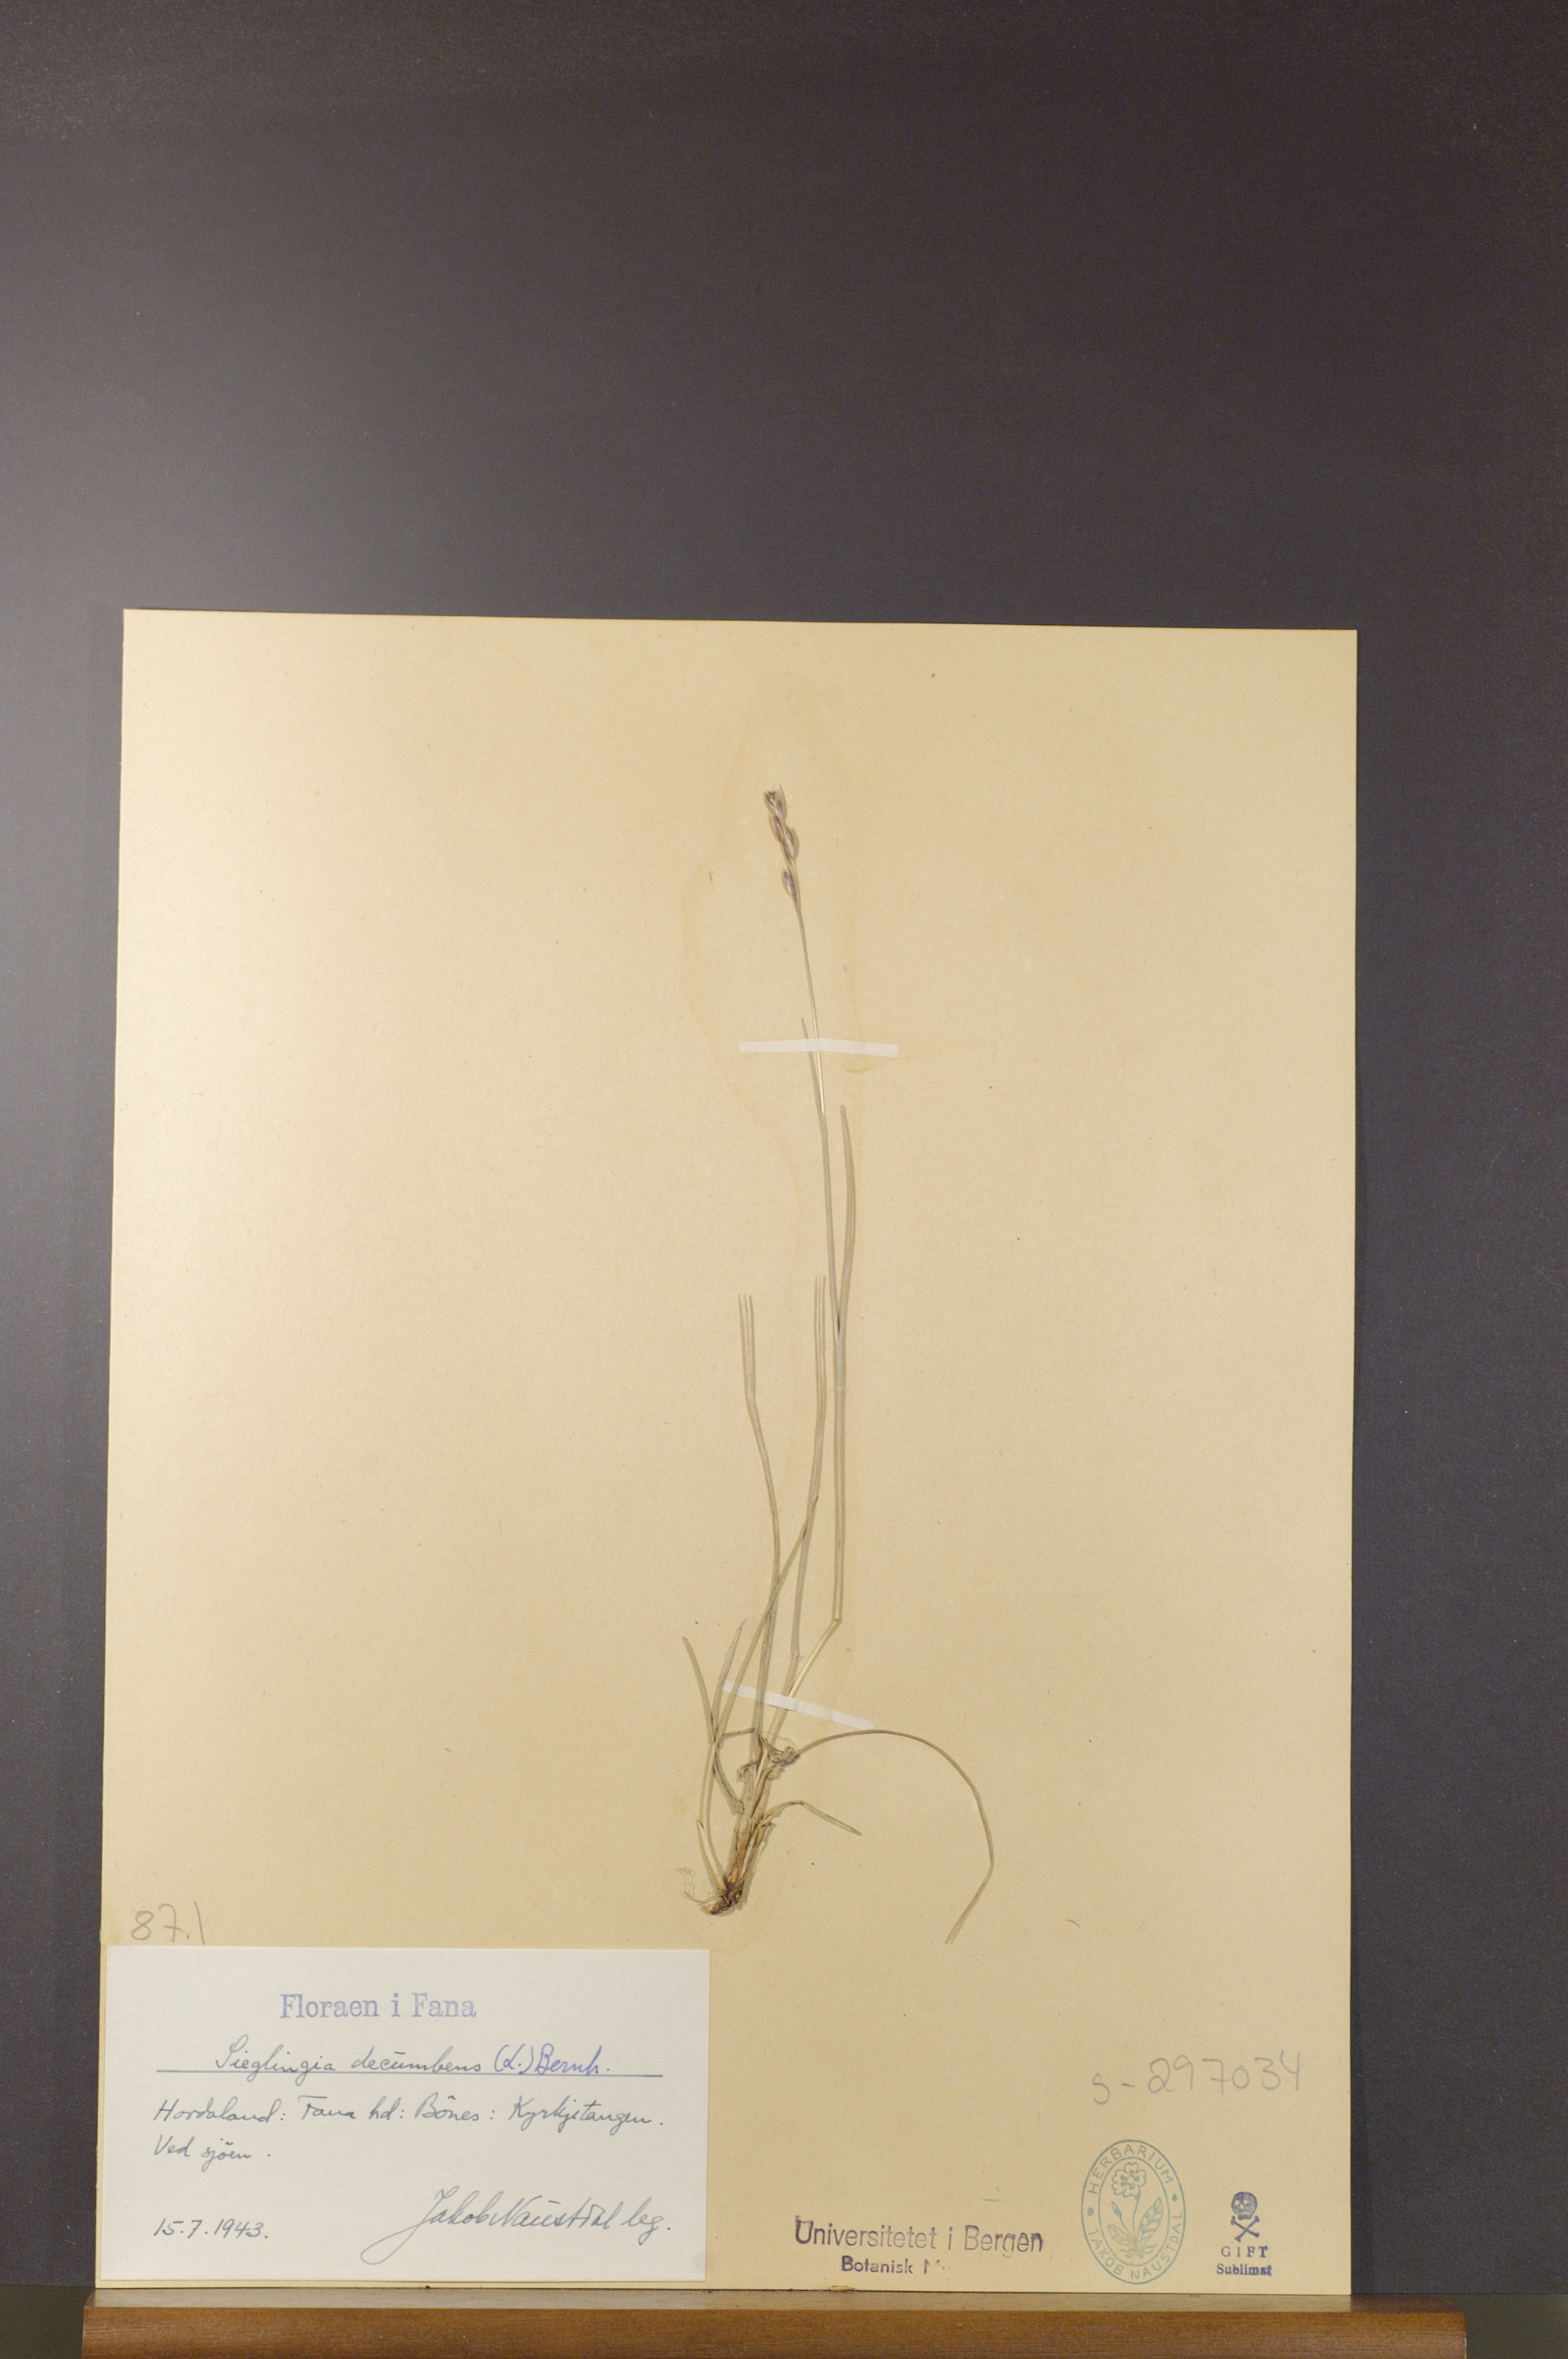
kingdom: Plantae
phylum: Tracheophyta
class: Liliopsida
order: Poales
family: Poaceae
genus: Danthonia
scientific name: Danthonia decumbens
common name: Common heathgrass
